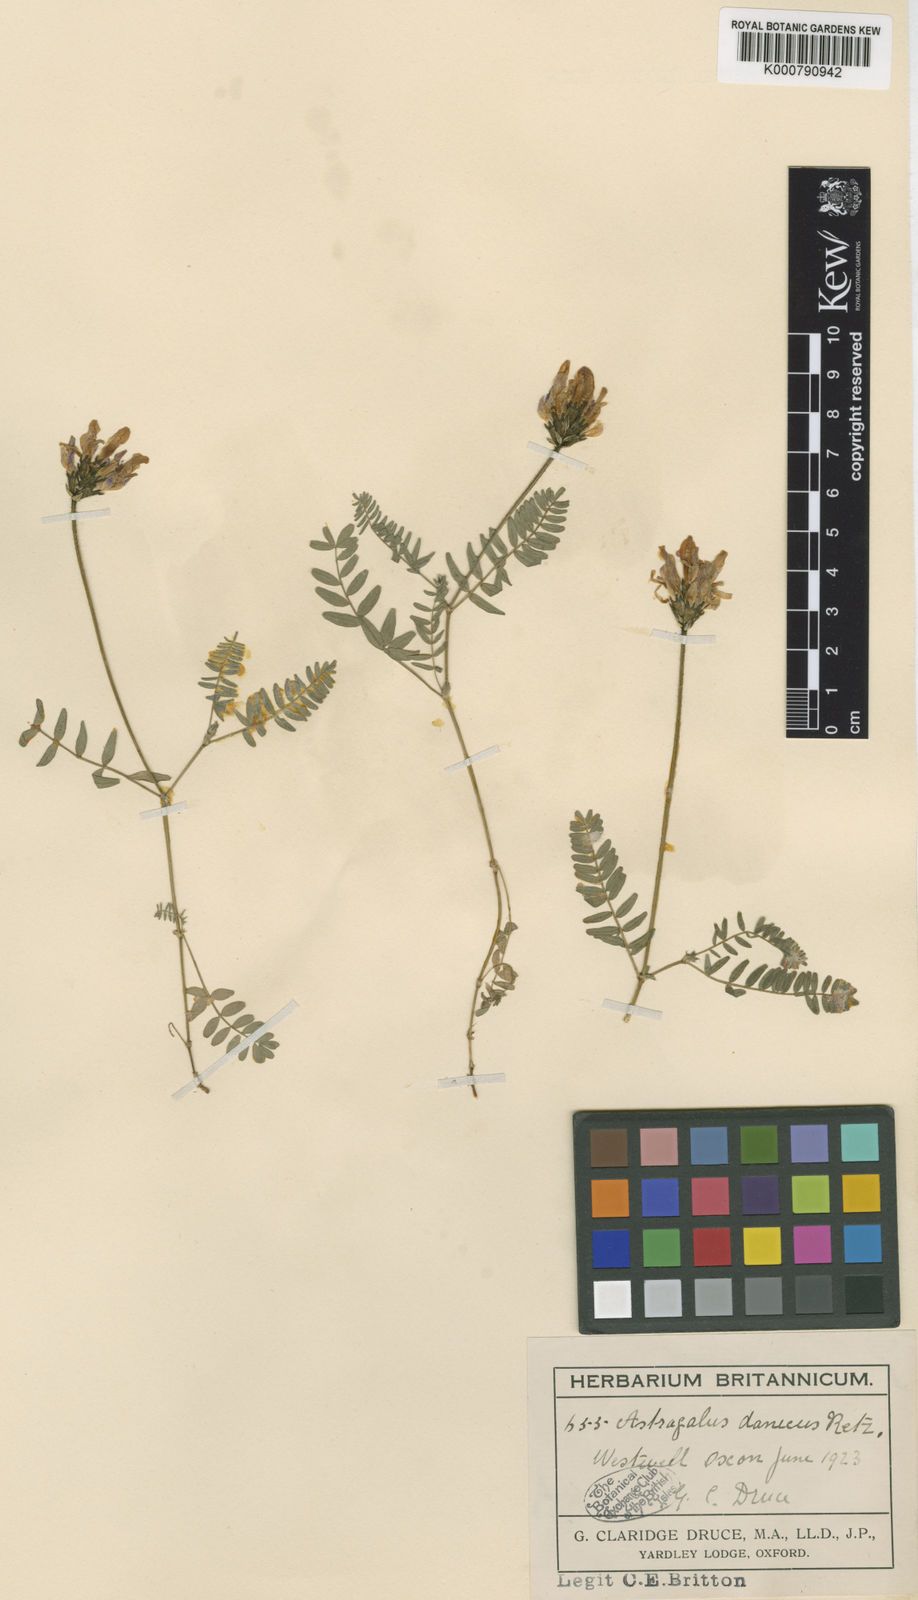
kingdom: Plantae
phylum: Tracheophyta
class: Magnoliopsida
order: Fabales
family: Fabaceae
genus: Astragalus
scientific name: Astragalus danicus
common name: Purple milk-vetch
